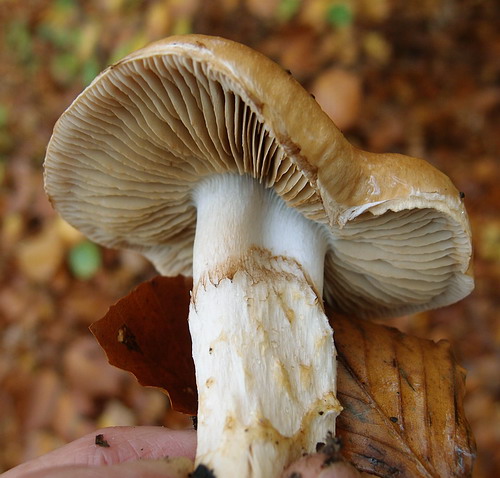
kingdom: Fungi
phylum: Basidiomycota
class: Agaricomycetes
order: Agaricales
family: Cortinariaceae
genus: Phlegmacium
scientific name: Phlegmacium vulpinum
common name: ringbæltet slørhat
